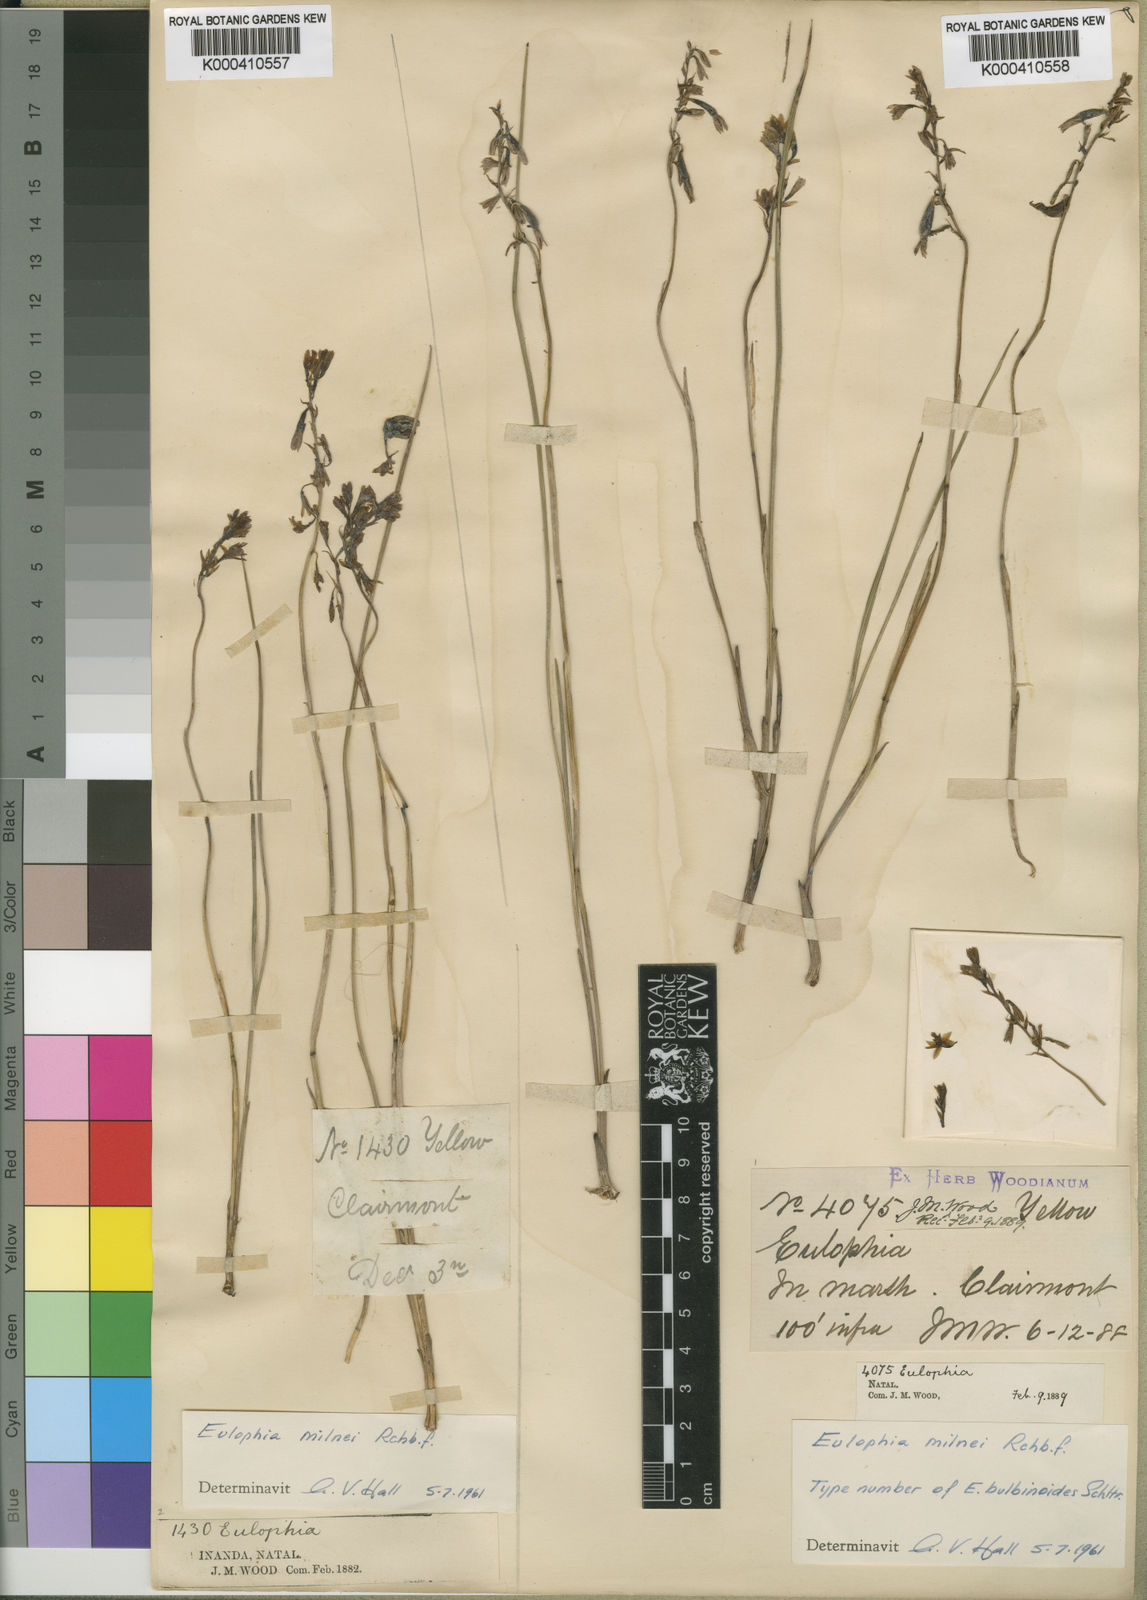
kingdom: Plantae
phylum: Tracheophyta
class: Liliopsida
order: Asparagales
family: Orchidaceae
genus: Eulophia
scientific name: Eulophia milnei
